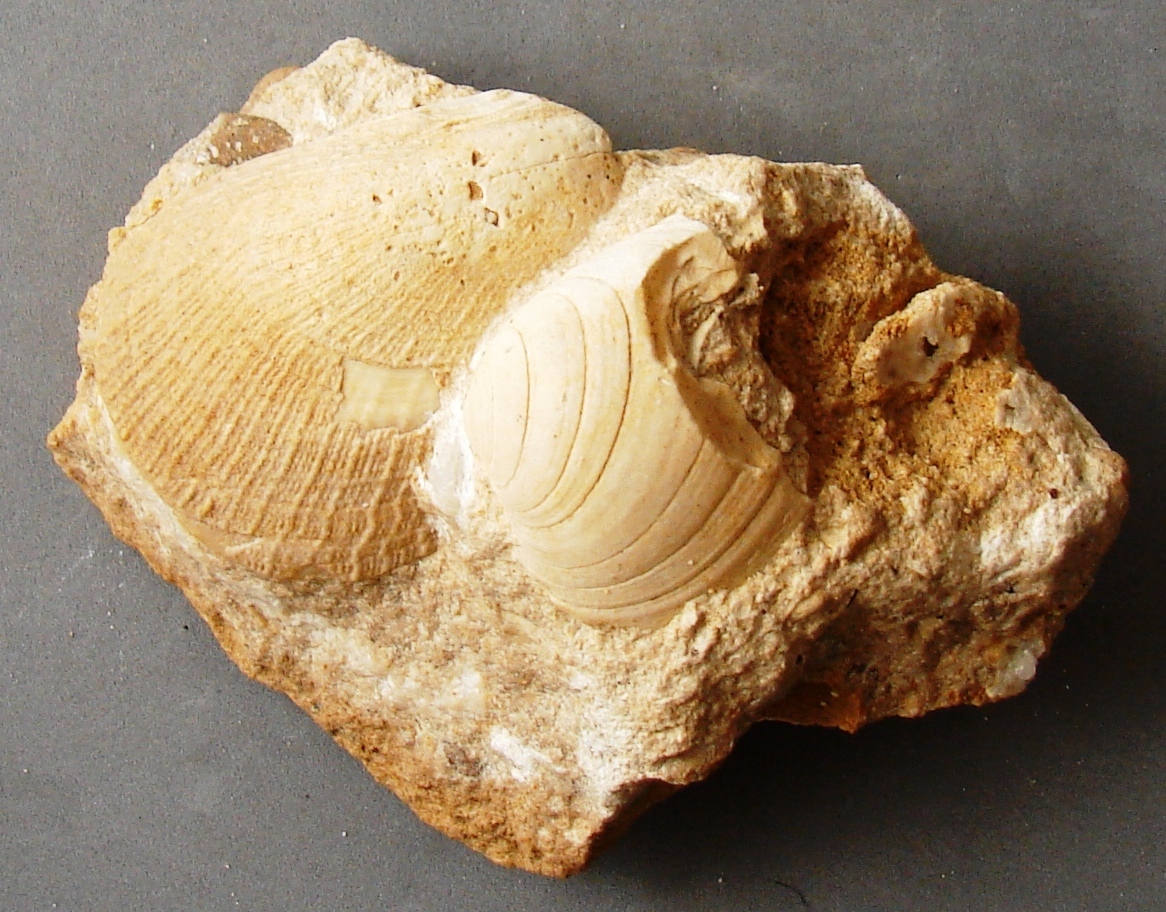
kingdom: Animalia
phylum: Mollusca
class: Bivalvia
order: Limida
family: Limidae
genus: Antiquilima
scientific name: Antiquilima nodulosa
